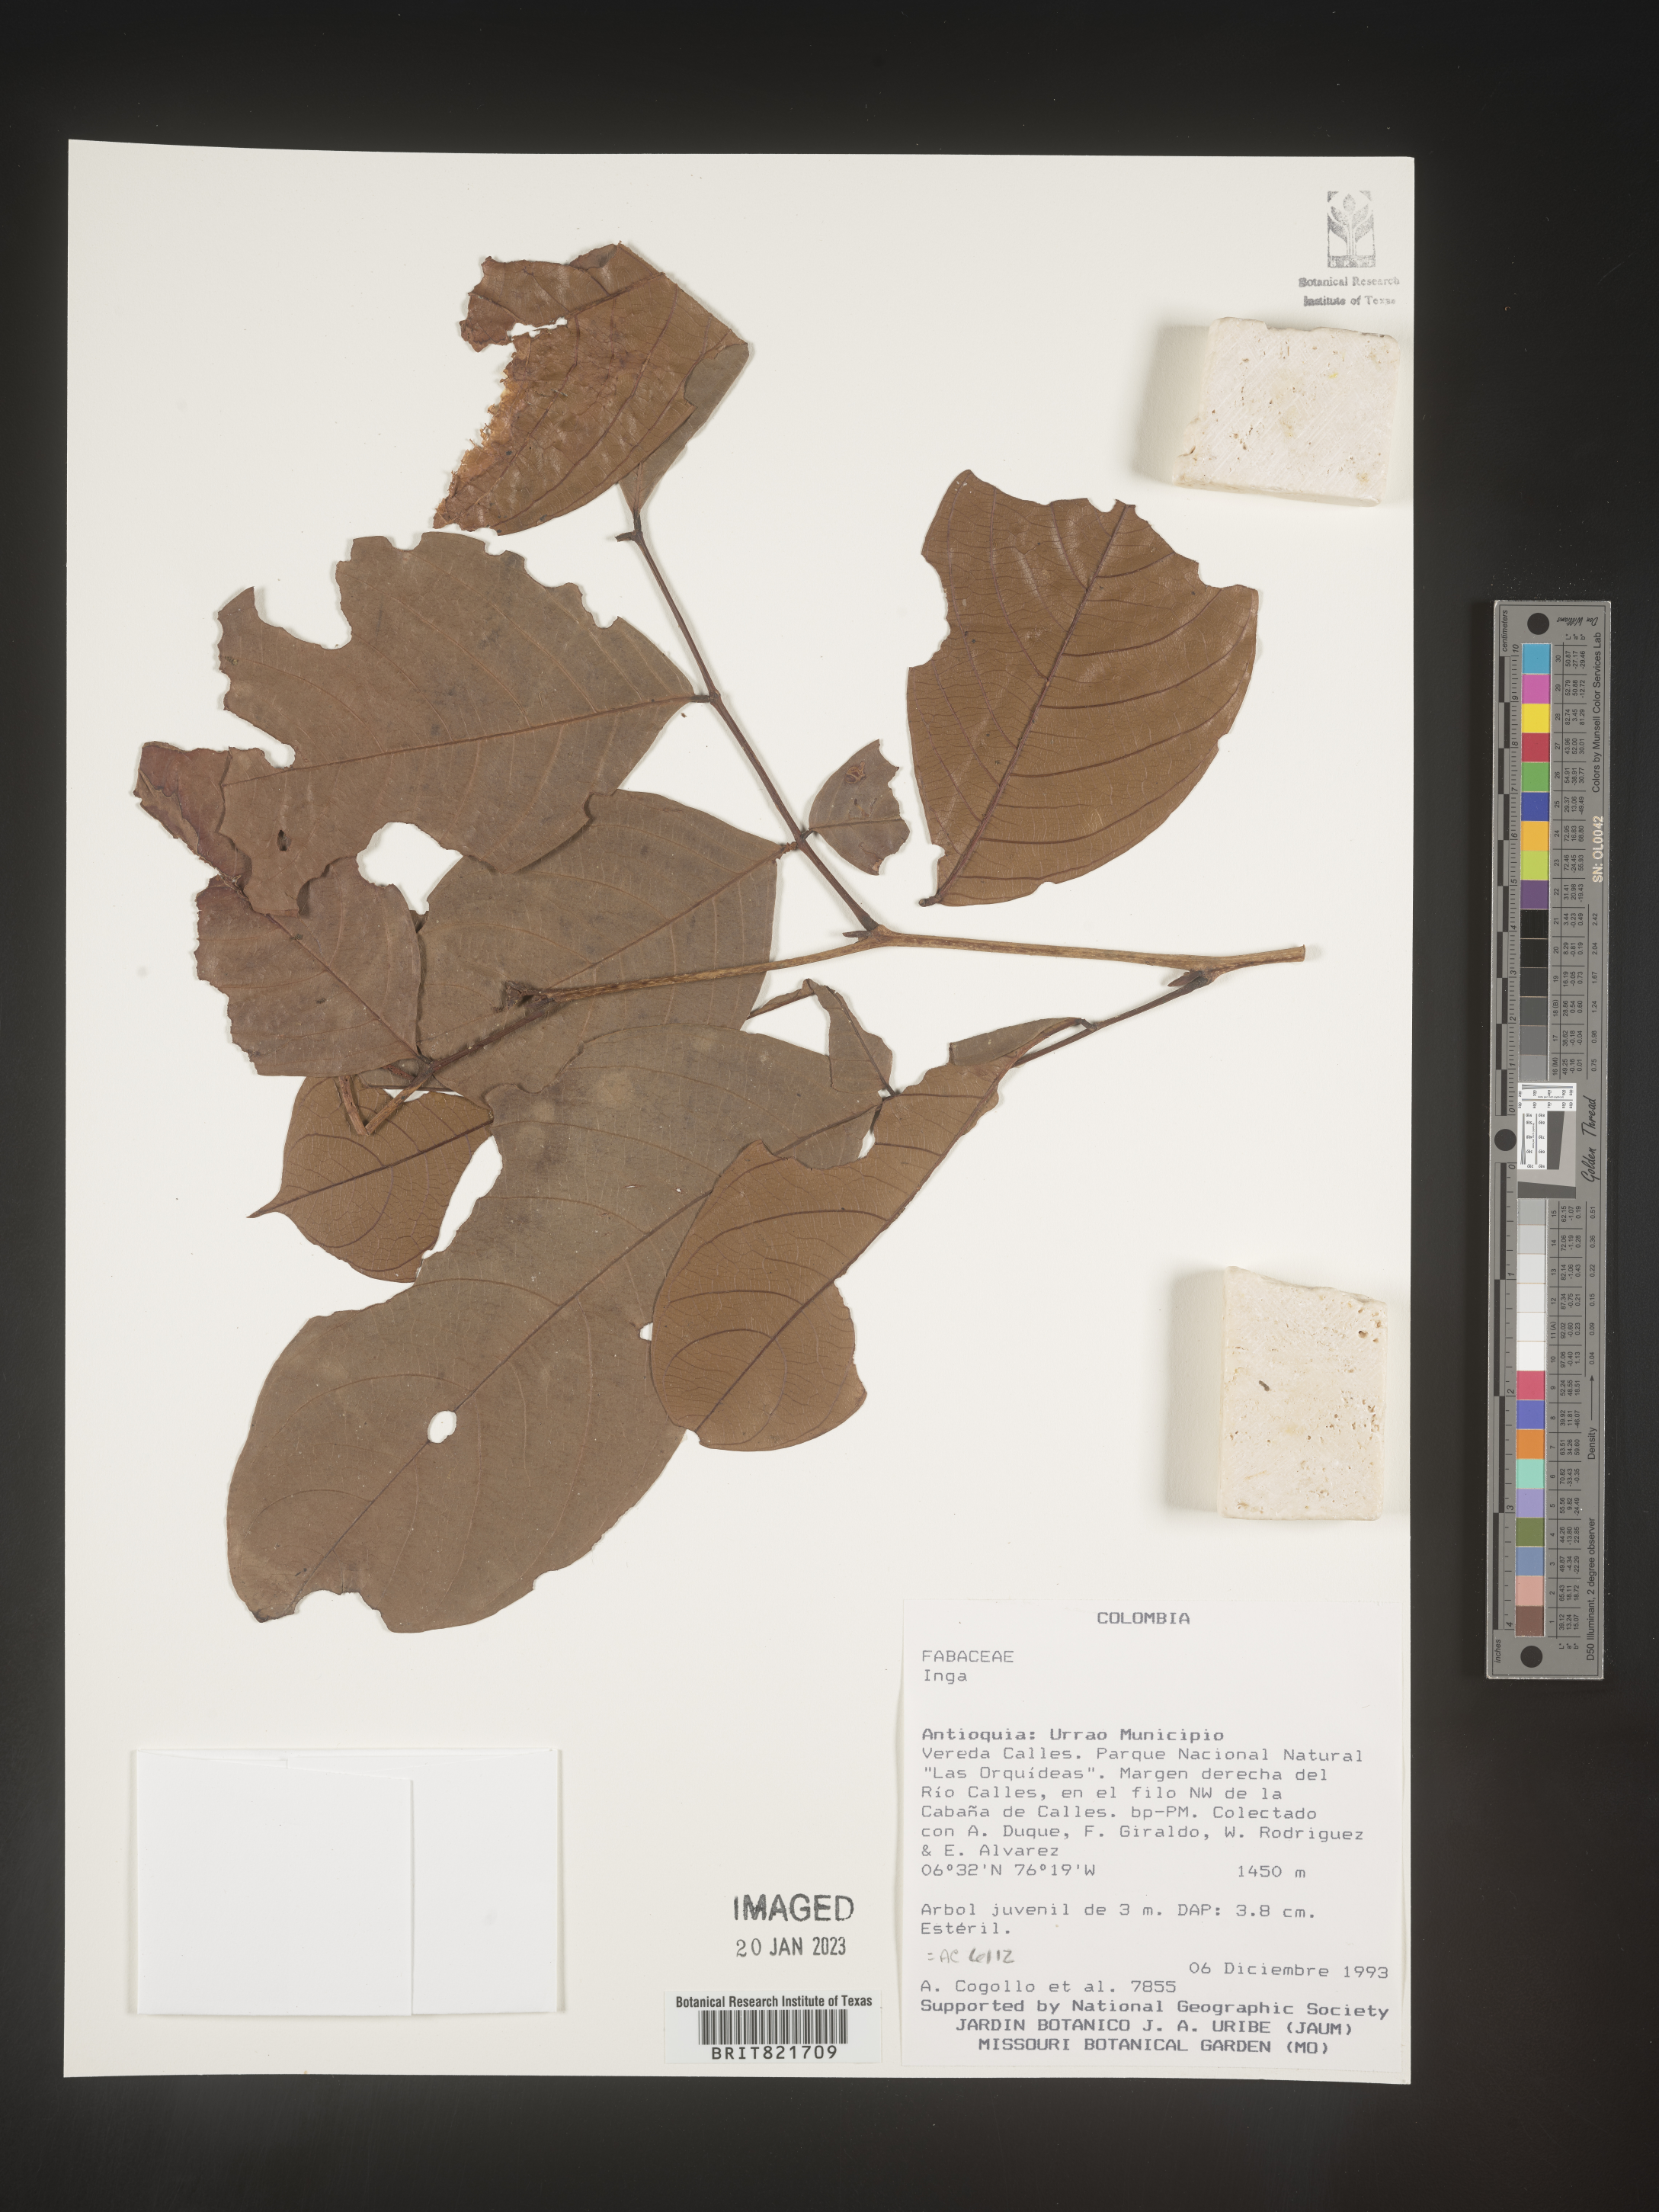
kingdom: Plantae
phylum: Tracheophyta
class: Magnoliopsida
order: Fabales
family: Fabaceae
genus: Inga
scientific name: Inga
